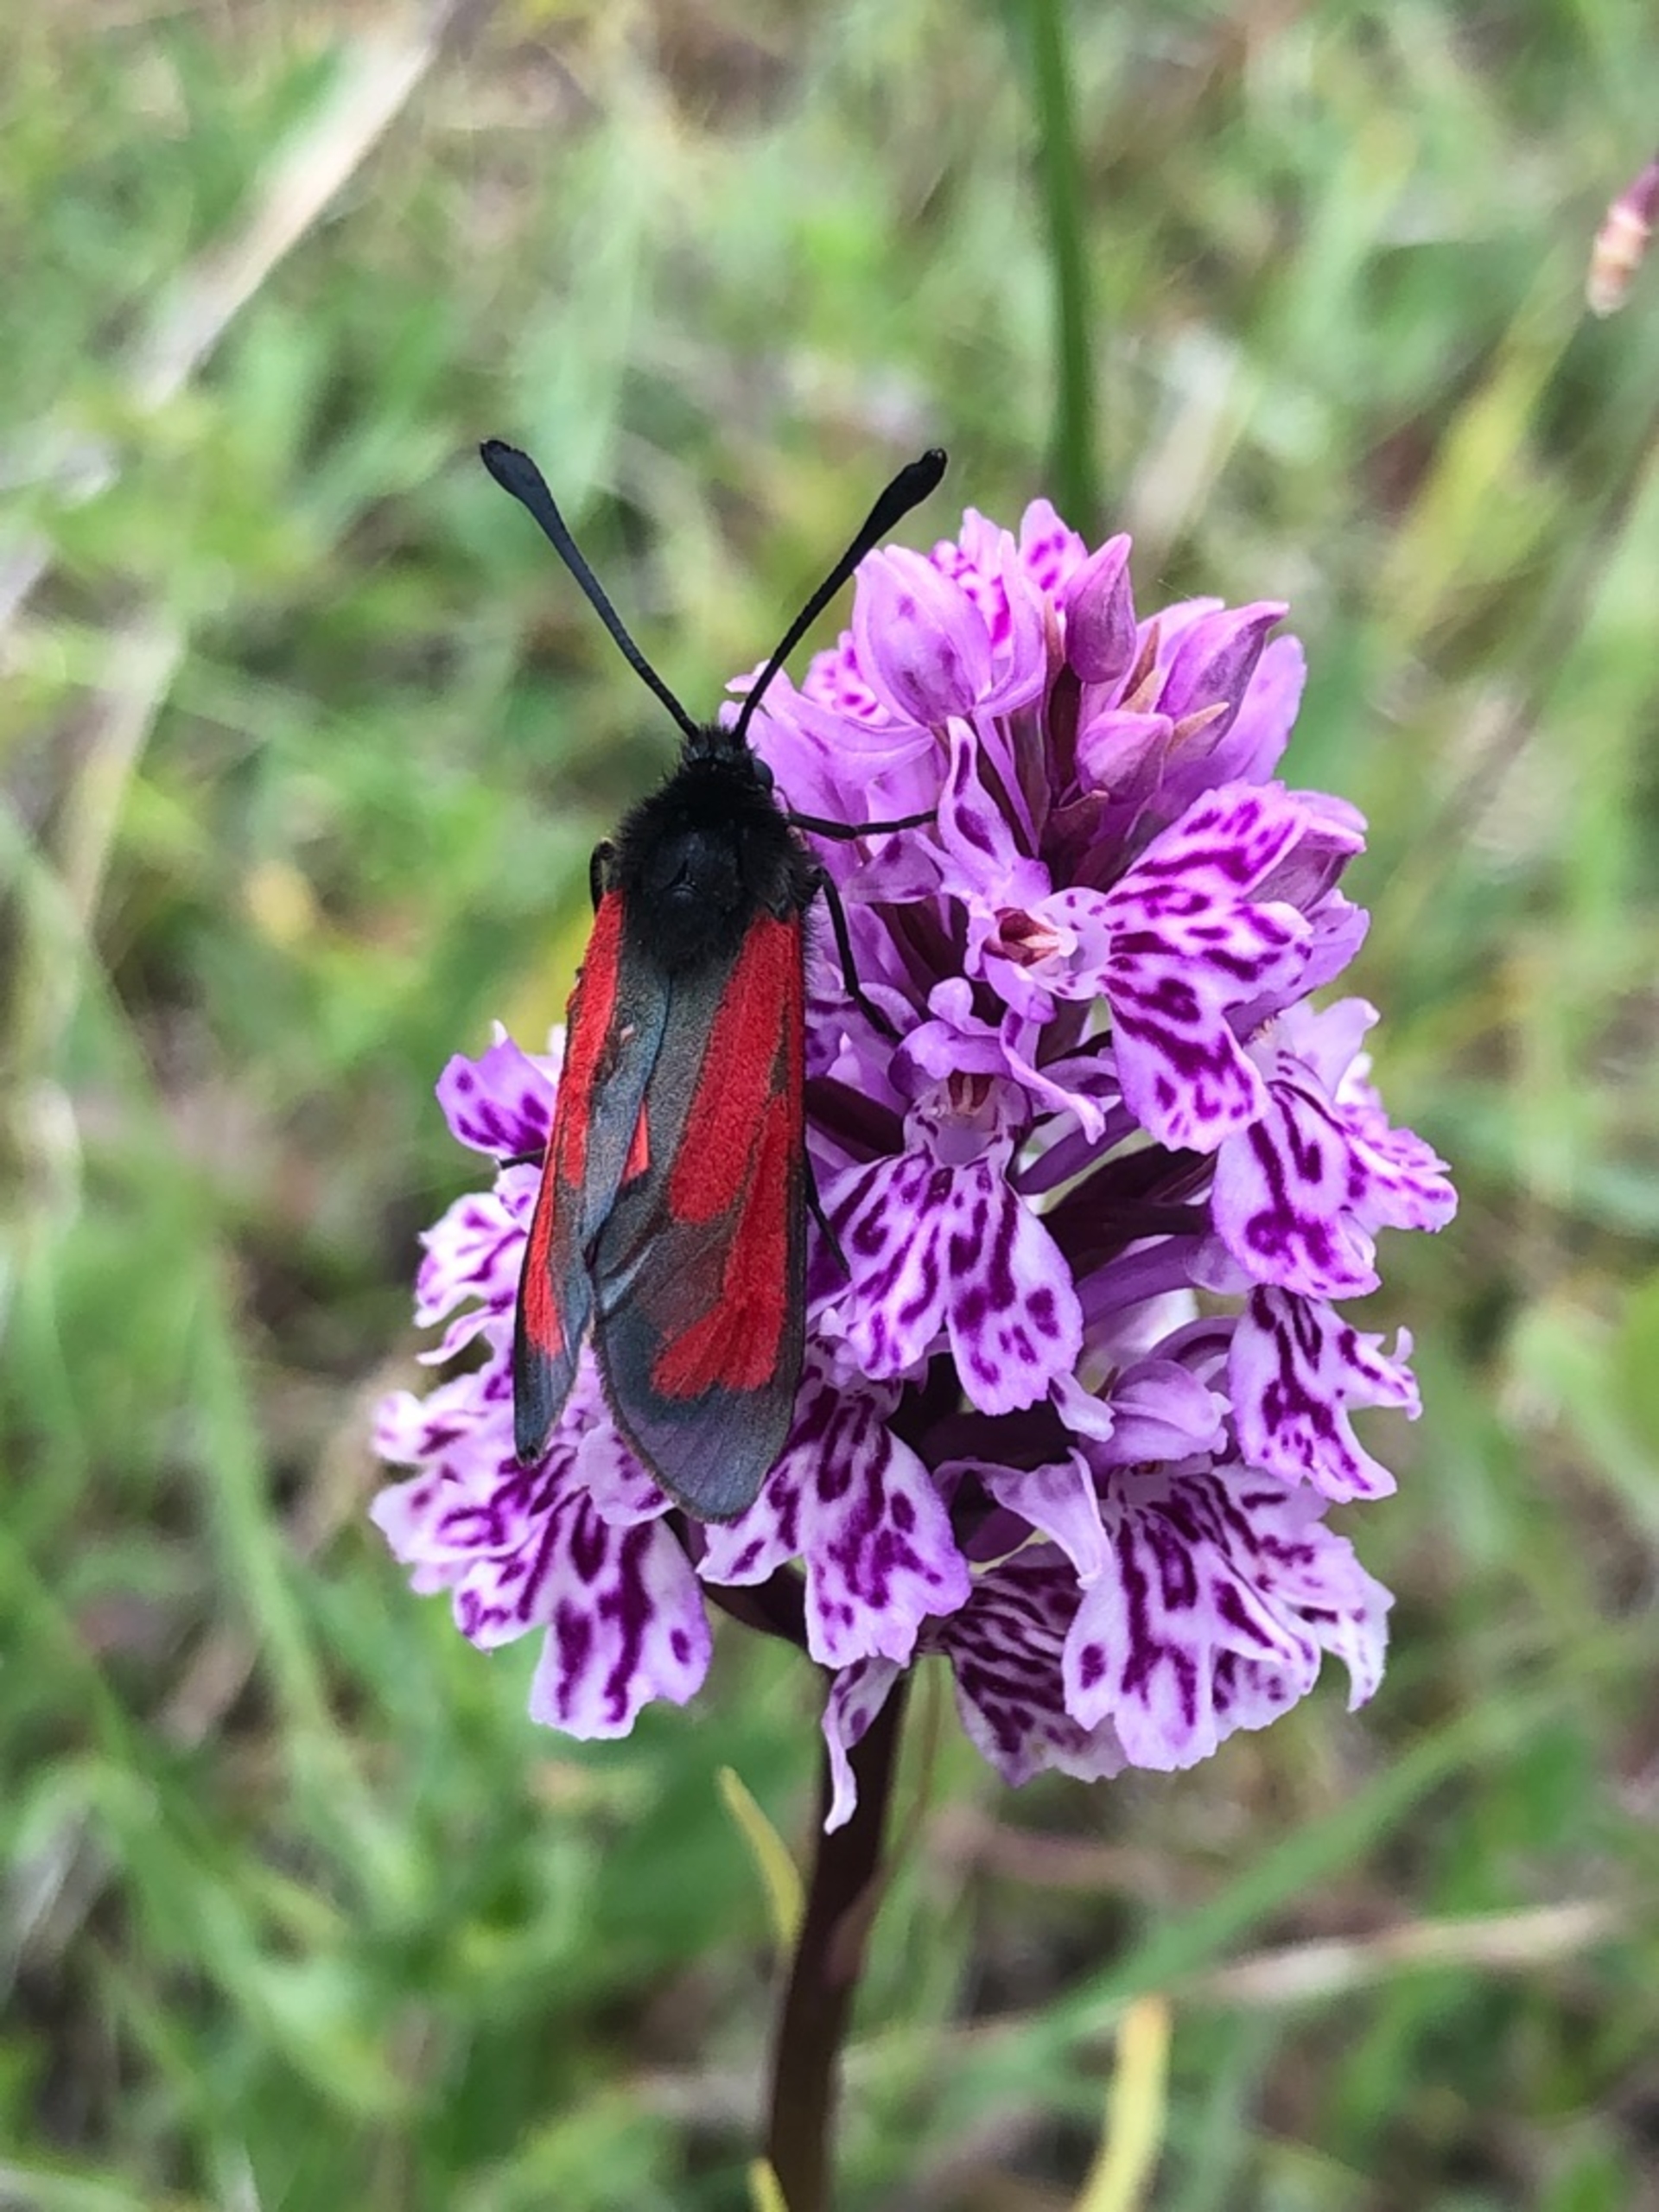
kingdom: Animalia
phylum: Arthropoda
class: Insecta
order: Lepidoptera
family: Zygaenidae
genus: Zygaena
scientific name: Zygaena purpuralis
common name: Timiankøllesværmer
